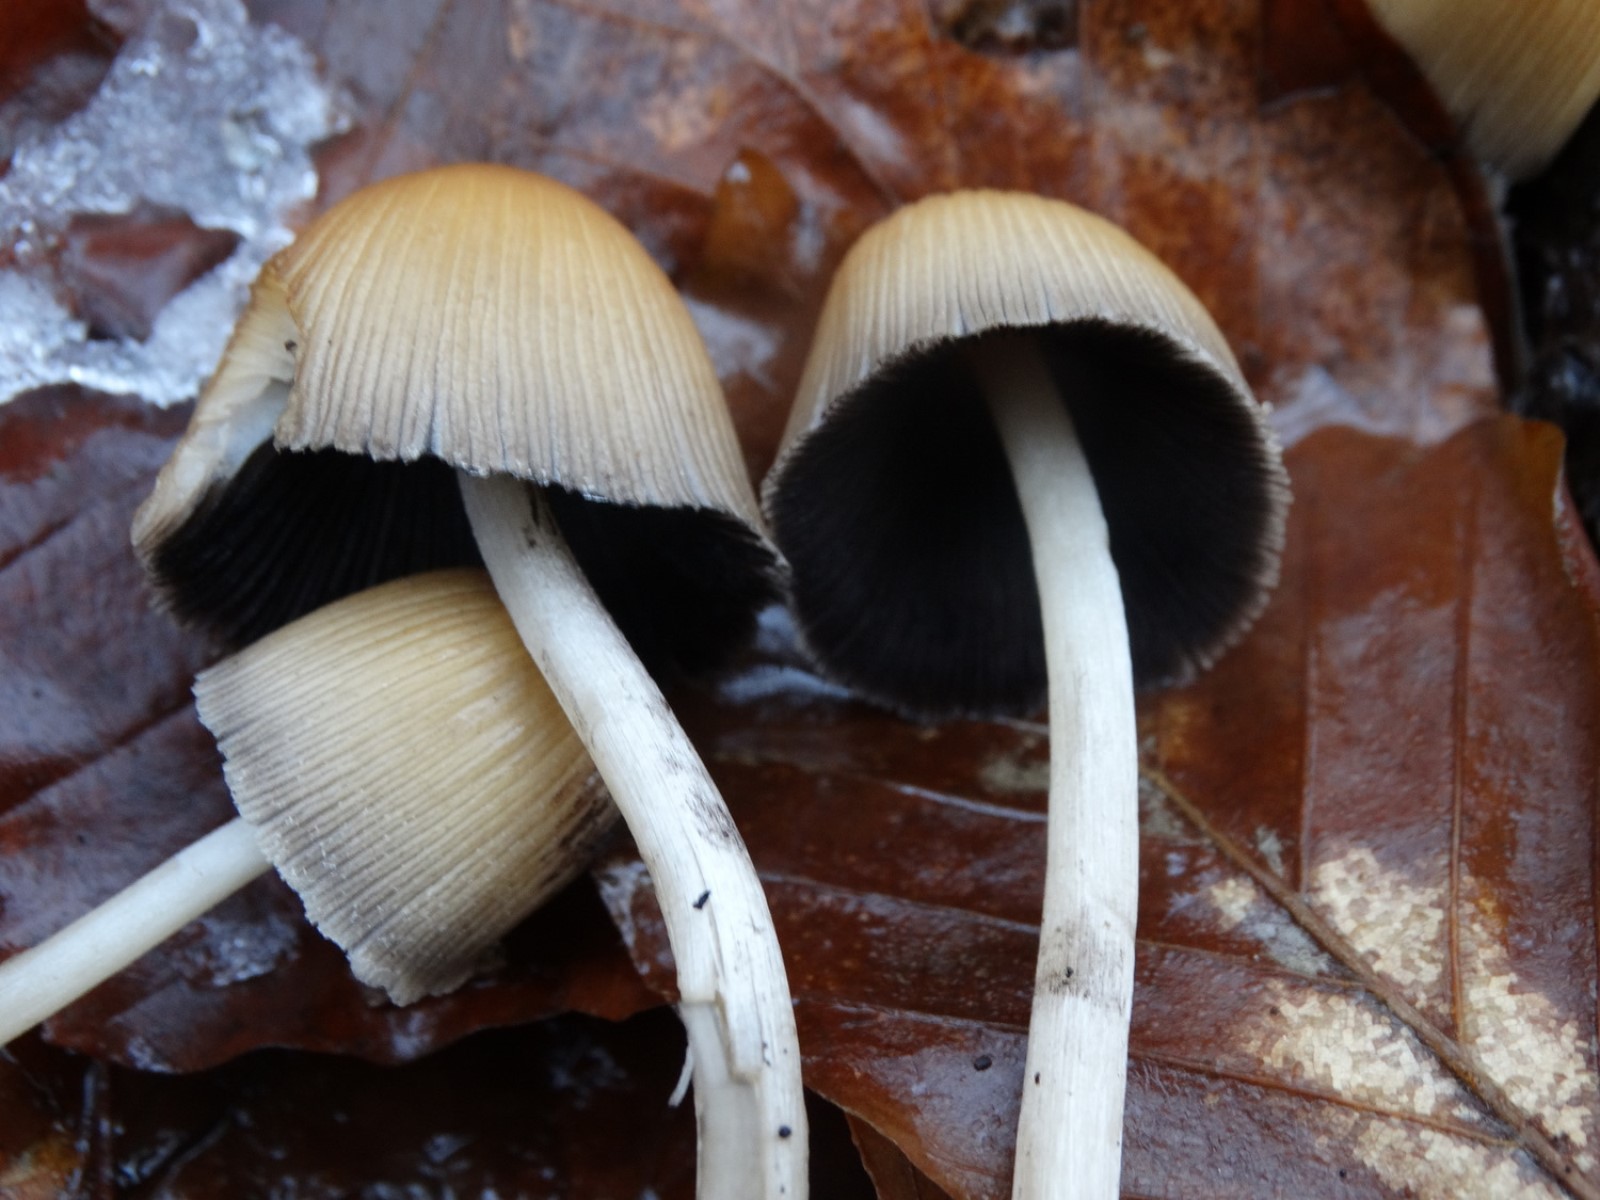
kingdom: Fungi
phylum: Basidiomycota
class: Agaricomycetes
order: Agaricales
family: Psathyrellaceae
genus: Coprinellus
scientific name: Coprinellus micaceus
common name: glimmer-blækhat
